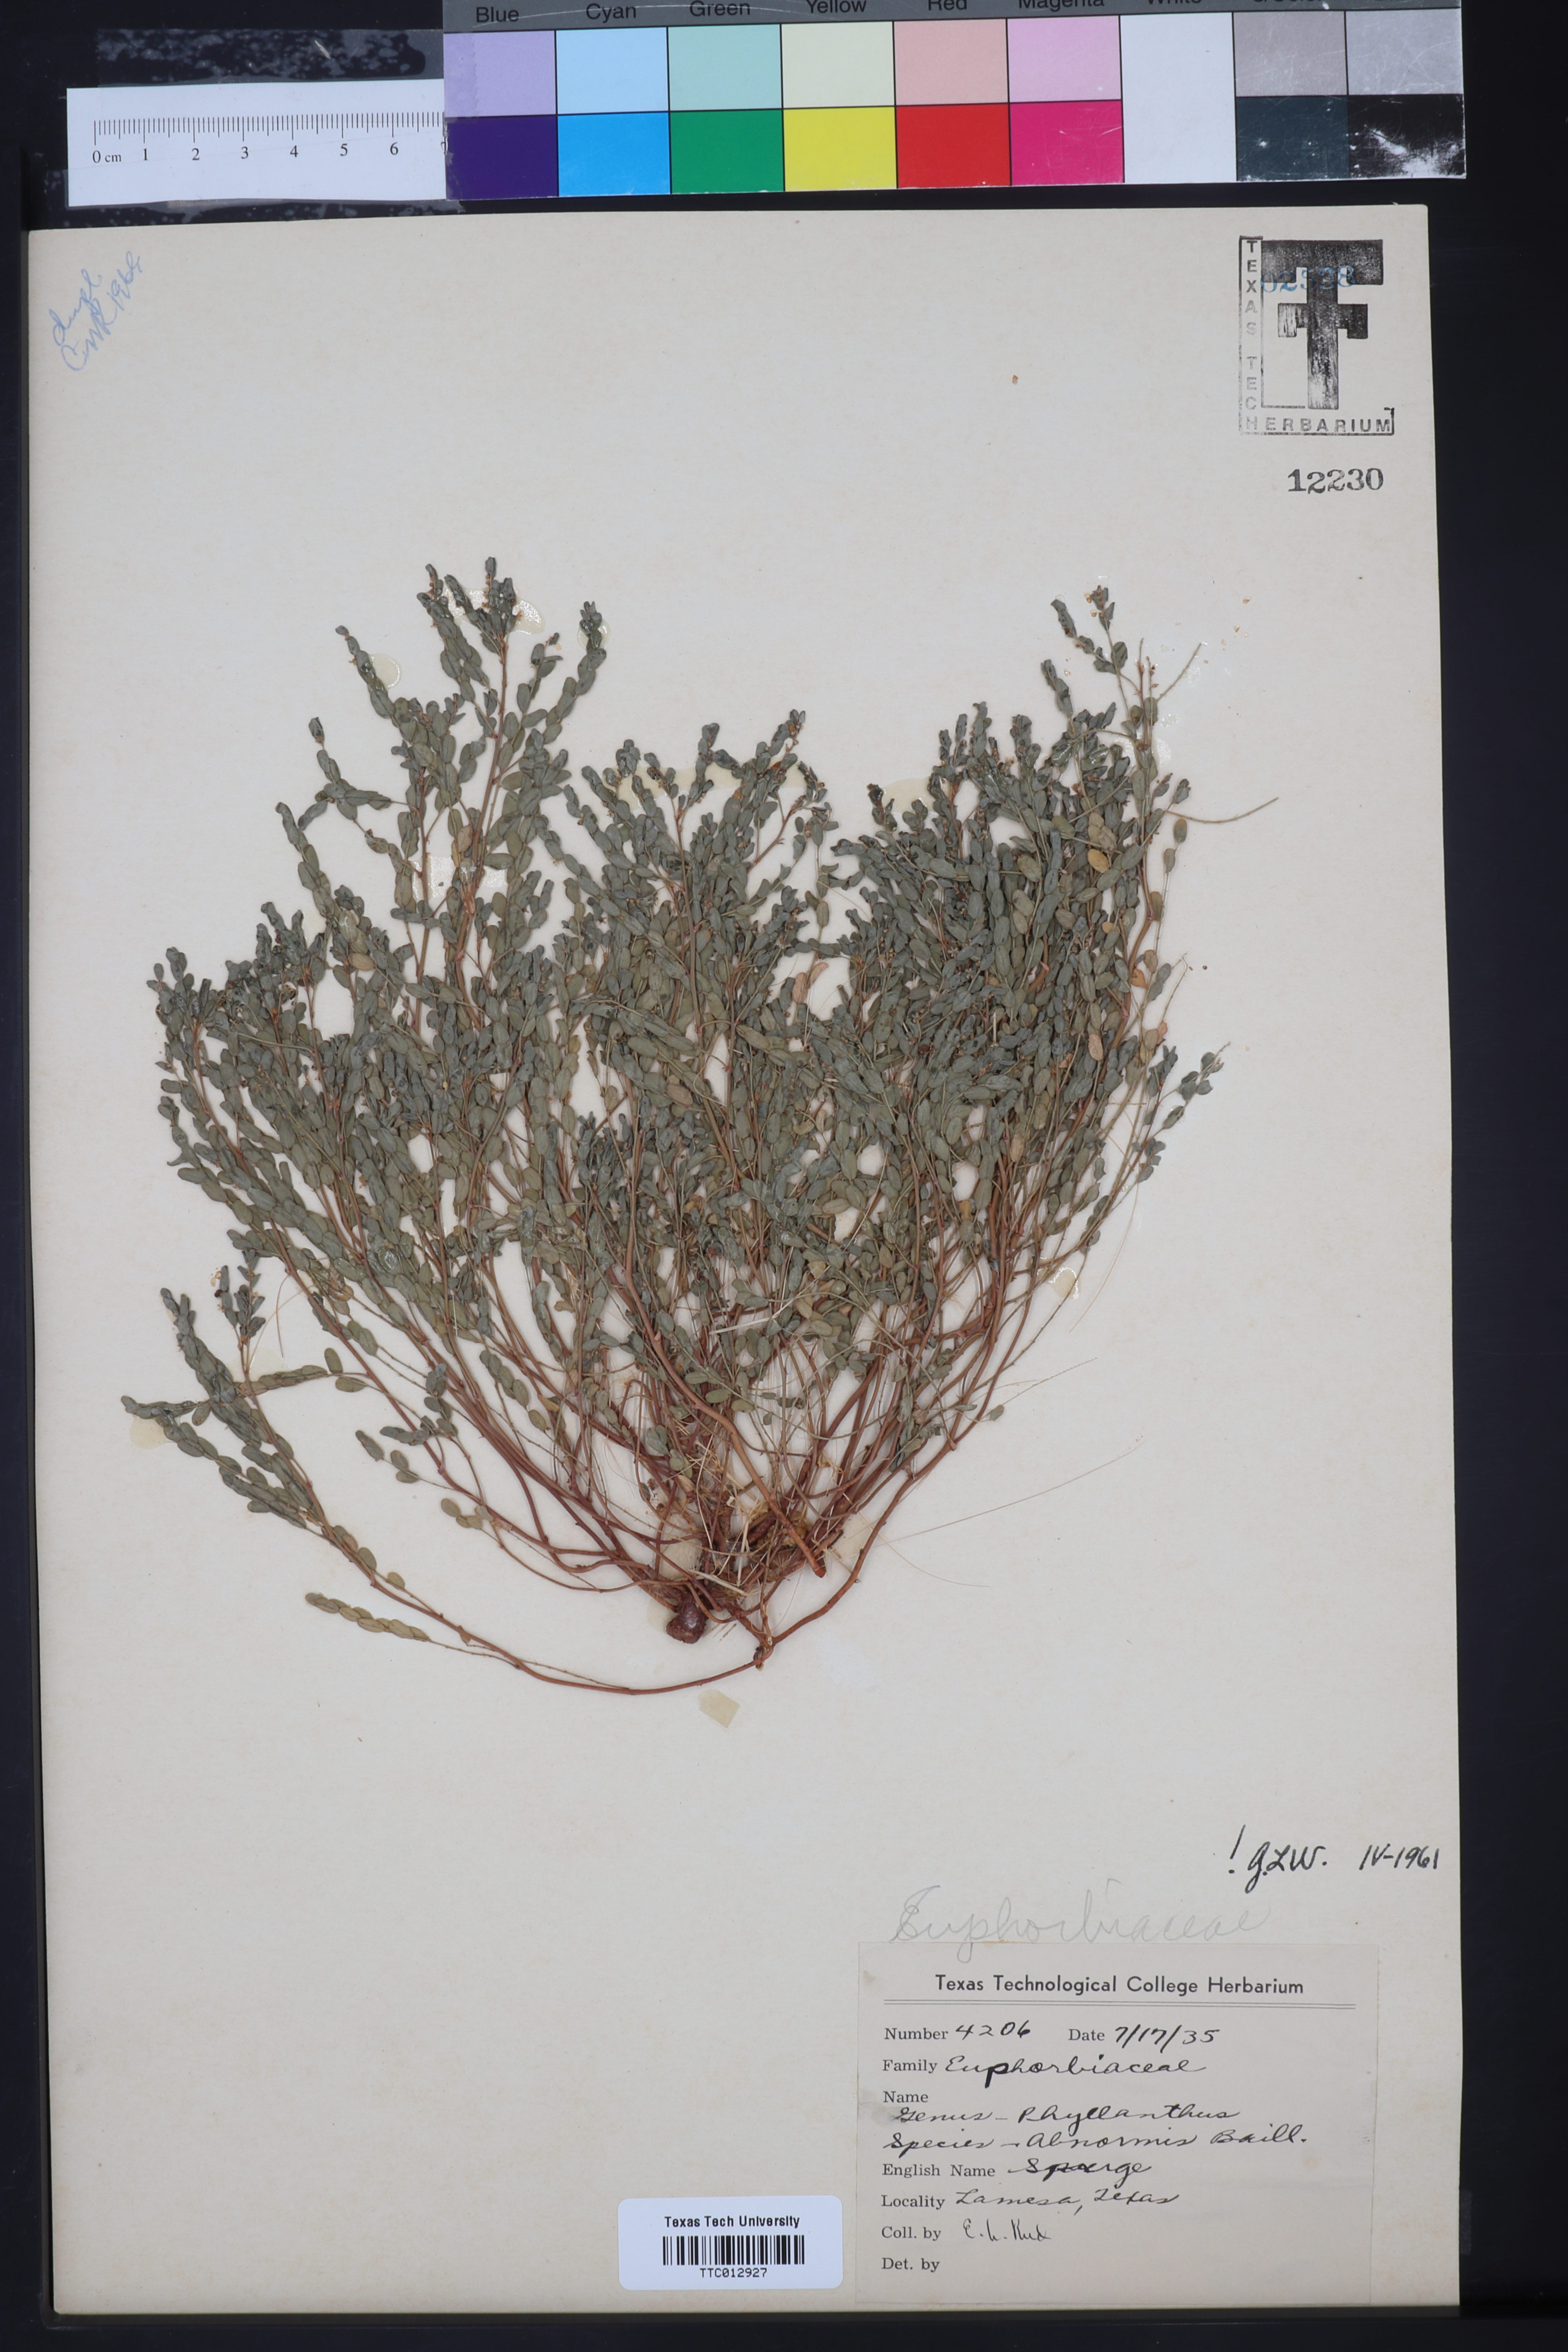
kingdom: Plantae
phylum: Tracheophyta
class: Magnoliopsida
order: Malpighiales
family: Phyllanthaceae
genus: Phyllanthus
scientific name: Phyllanthus abnormis
